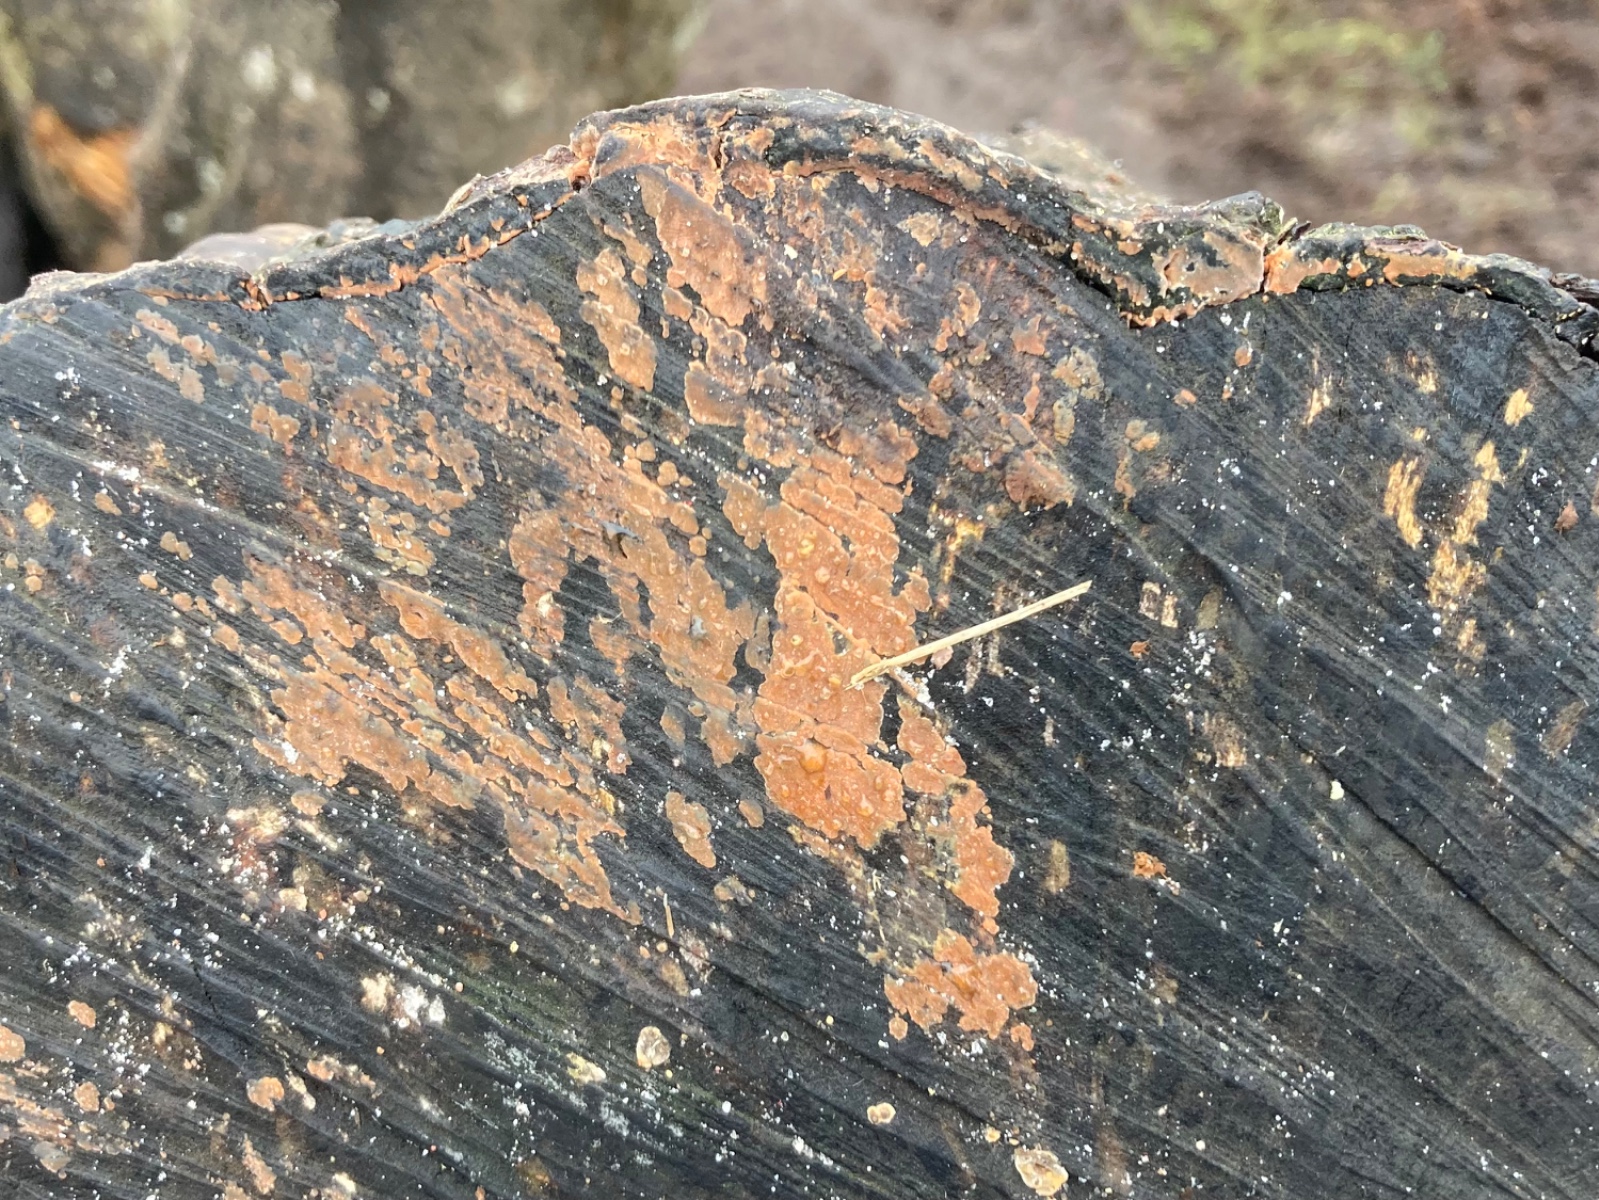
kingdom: Fungi
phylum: Basidiomycota
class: Agaricomycetes
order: Russulales
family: Peniophoraceae
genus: Peniophora
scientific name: Peniophora incarnata
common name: laksefarvet voksskind
